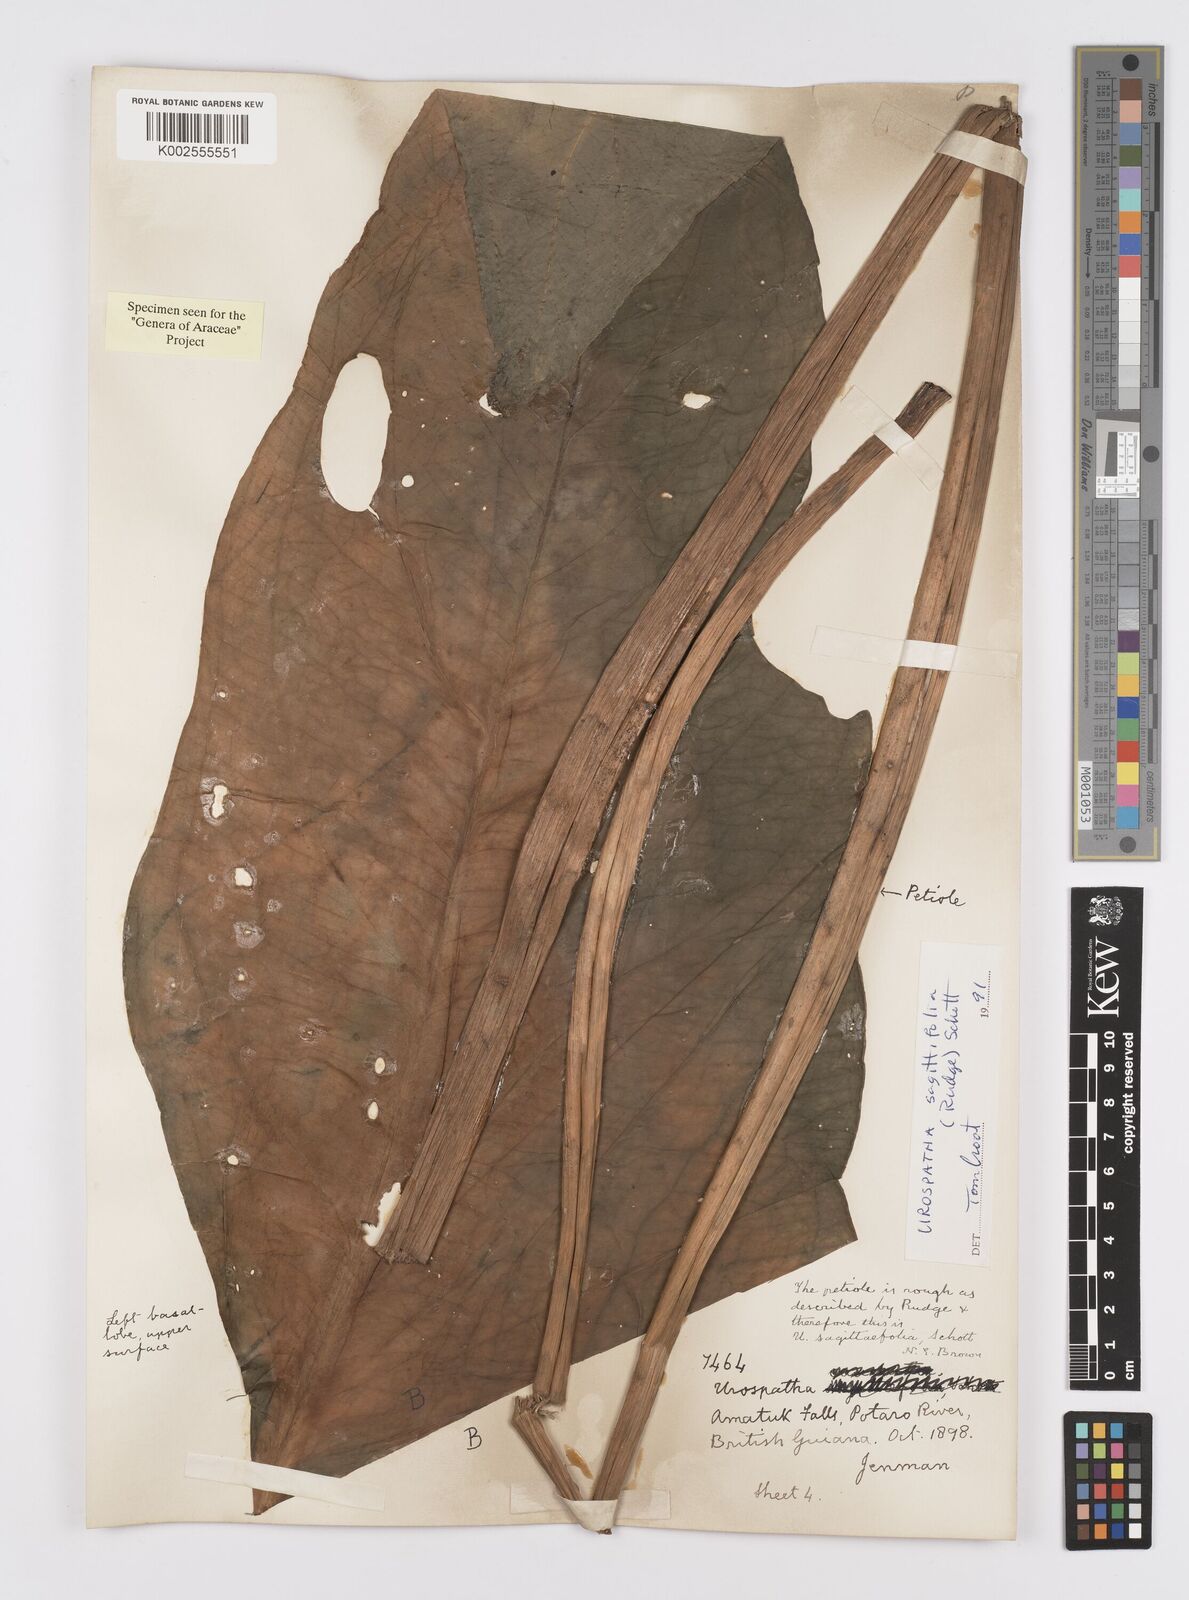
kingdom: Plantae
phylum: Tracheophyta
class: Liliopsida
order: Alismatales
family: Araceae
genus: Urospatha
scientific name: Urospatha sagittifolia
